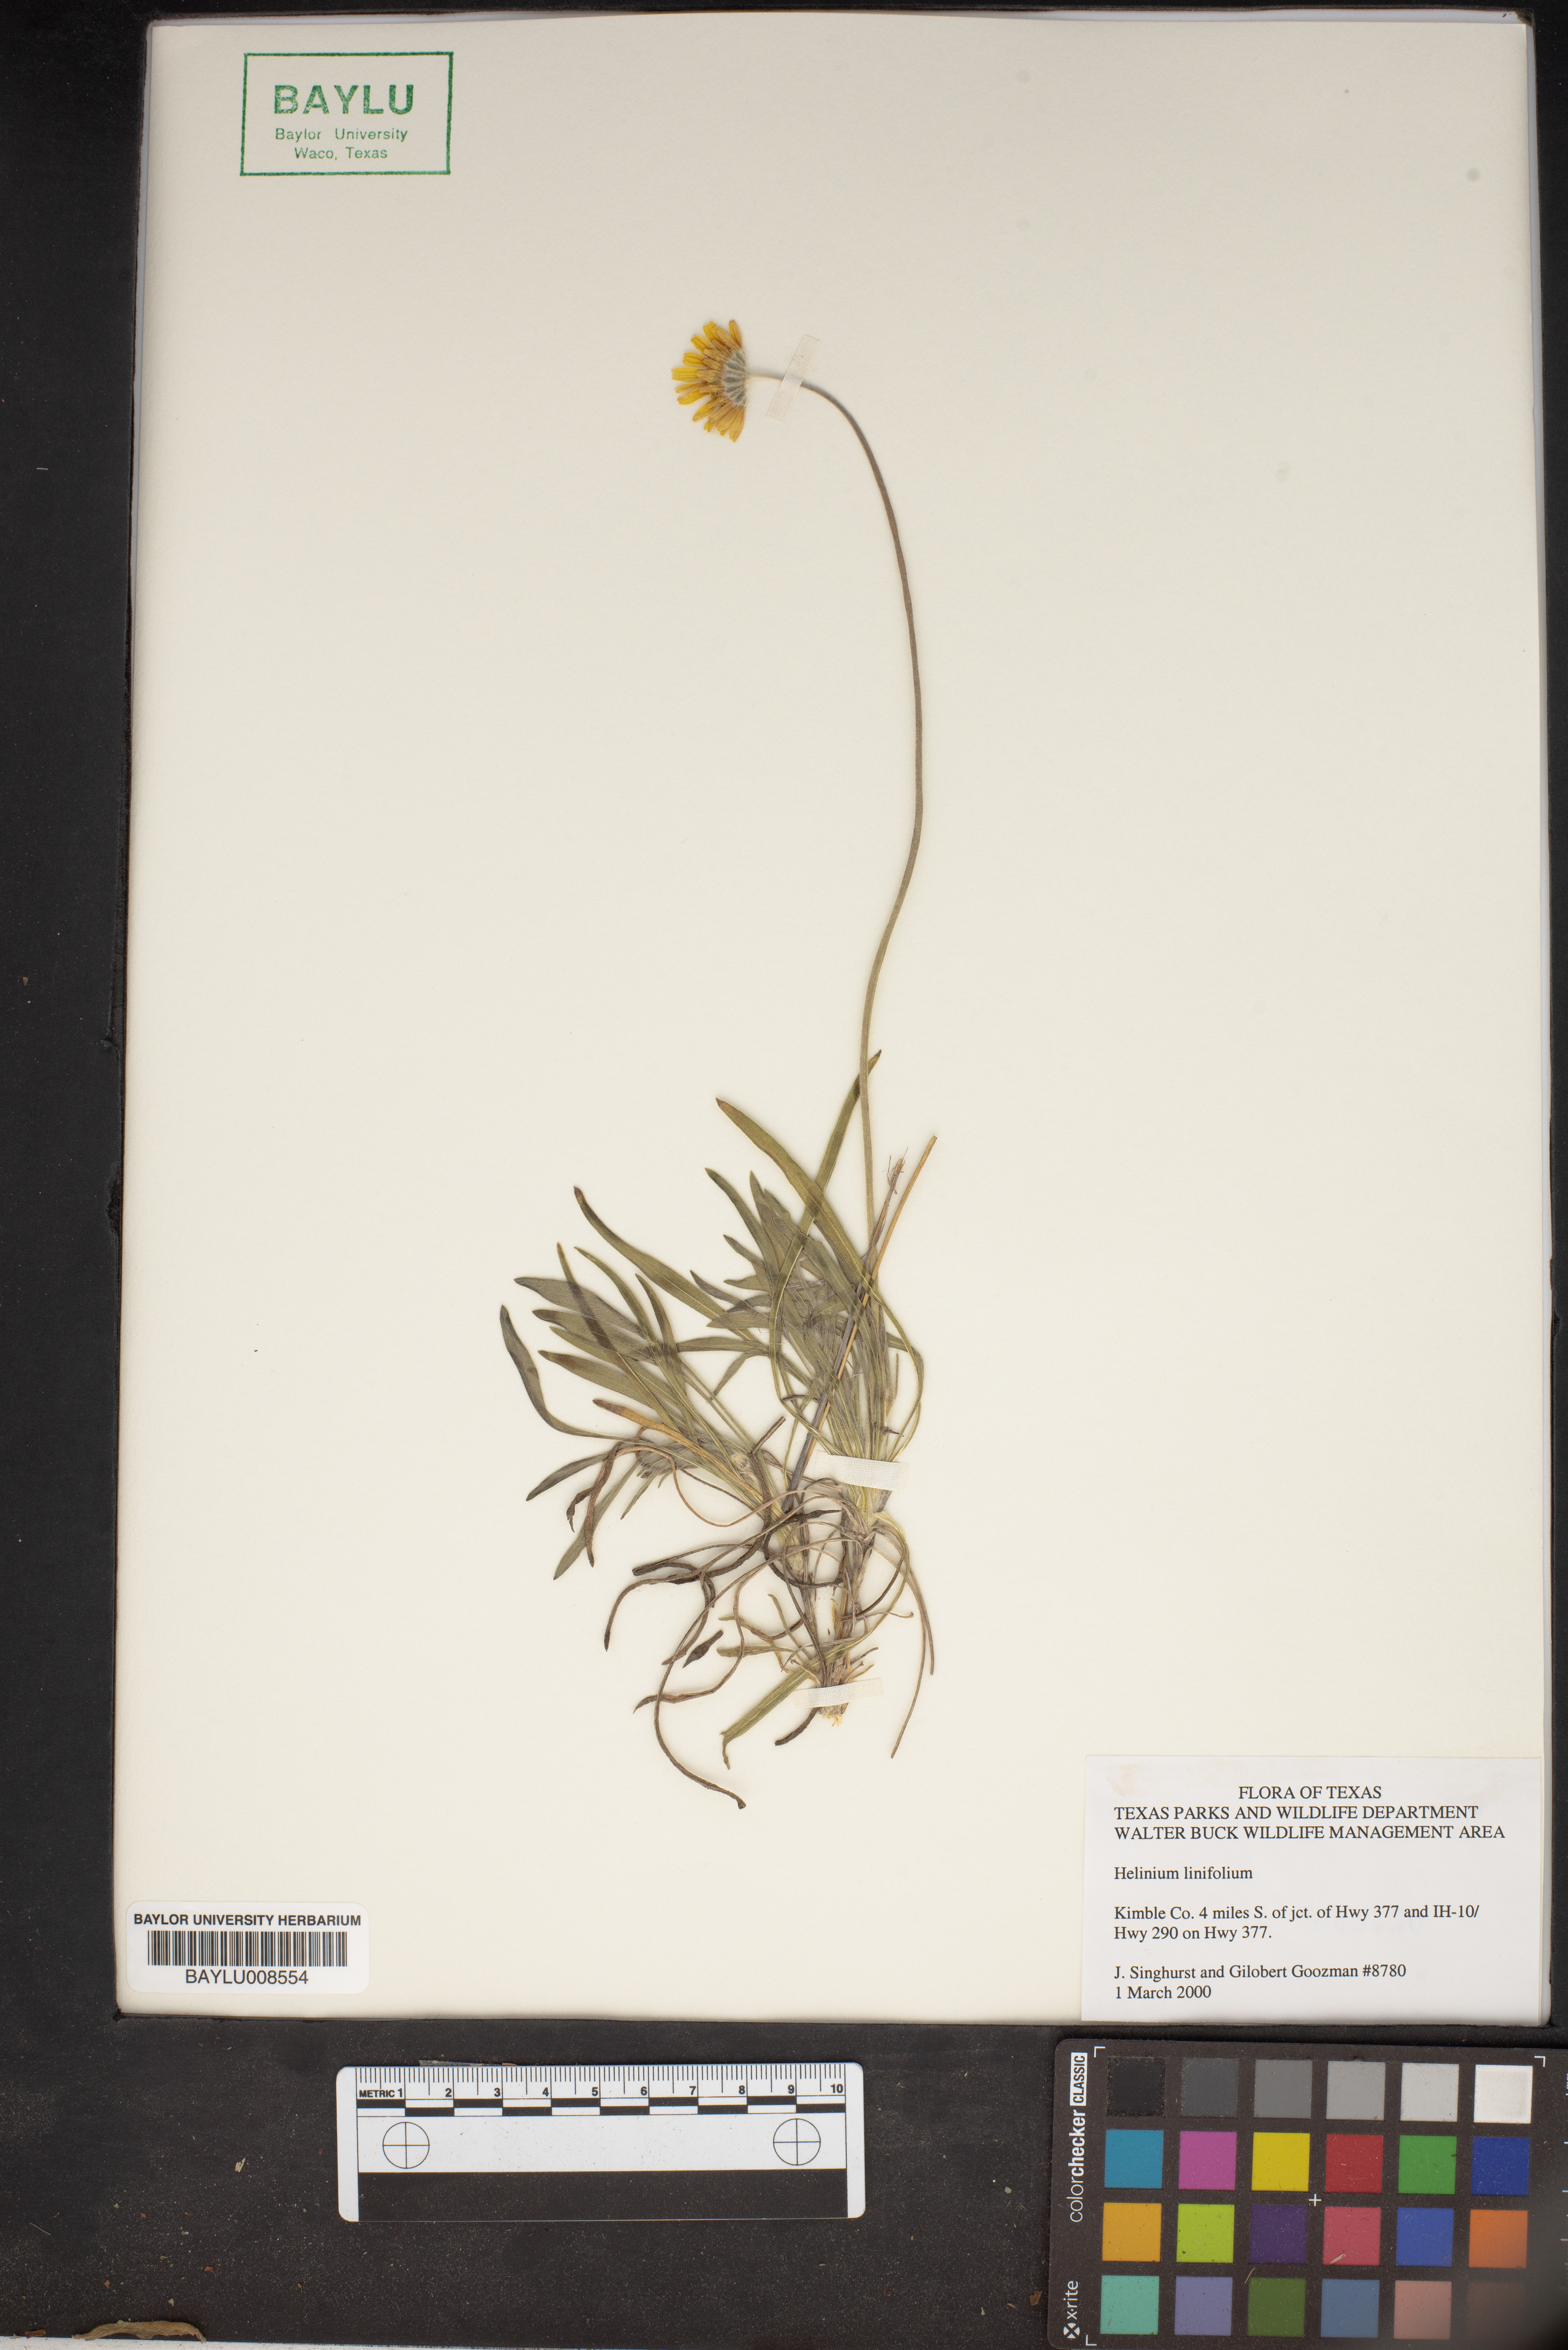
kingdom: Plantae
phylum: Tracheophyta
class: Magnoliopsida
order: Asterales
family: Asteraceae
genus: Helenium
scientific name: Helenium linifolium
